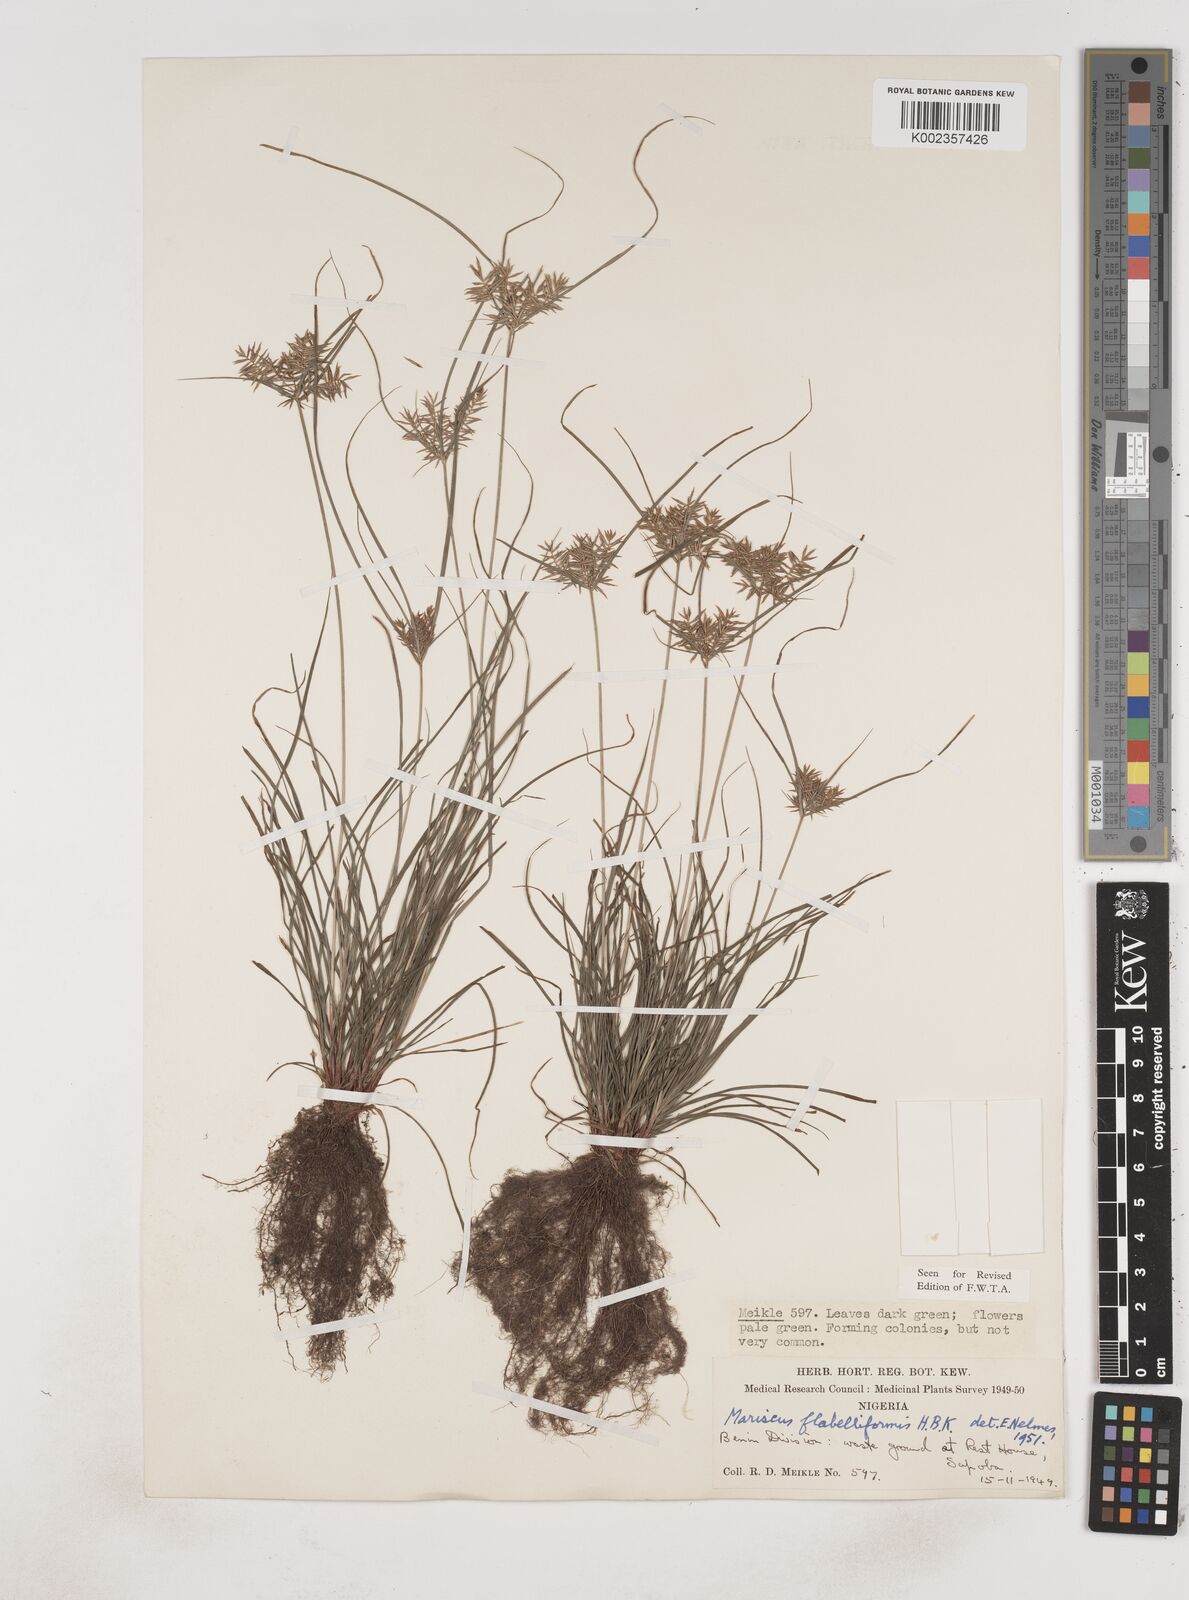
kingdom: Plantae
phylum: Tracheophyta
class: Liliopsida
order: Poales
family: Cyperaceae
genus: Cyperus
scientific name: Cyperus tenuis
